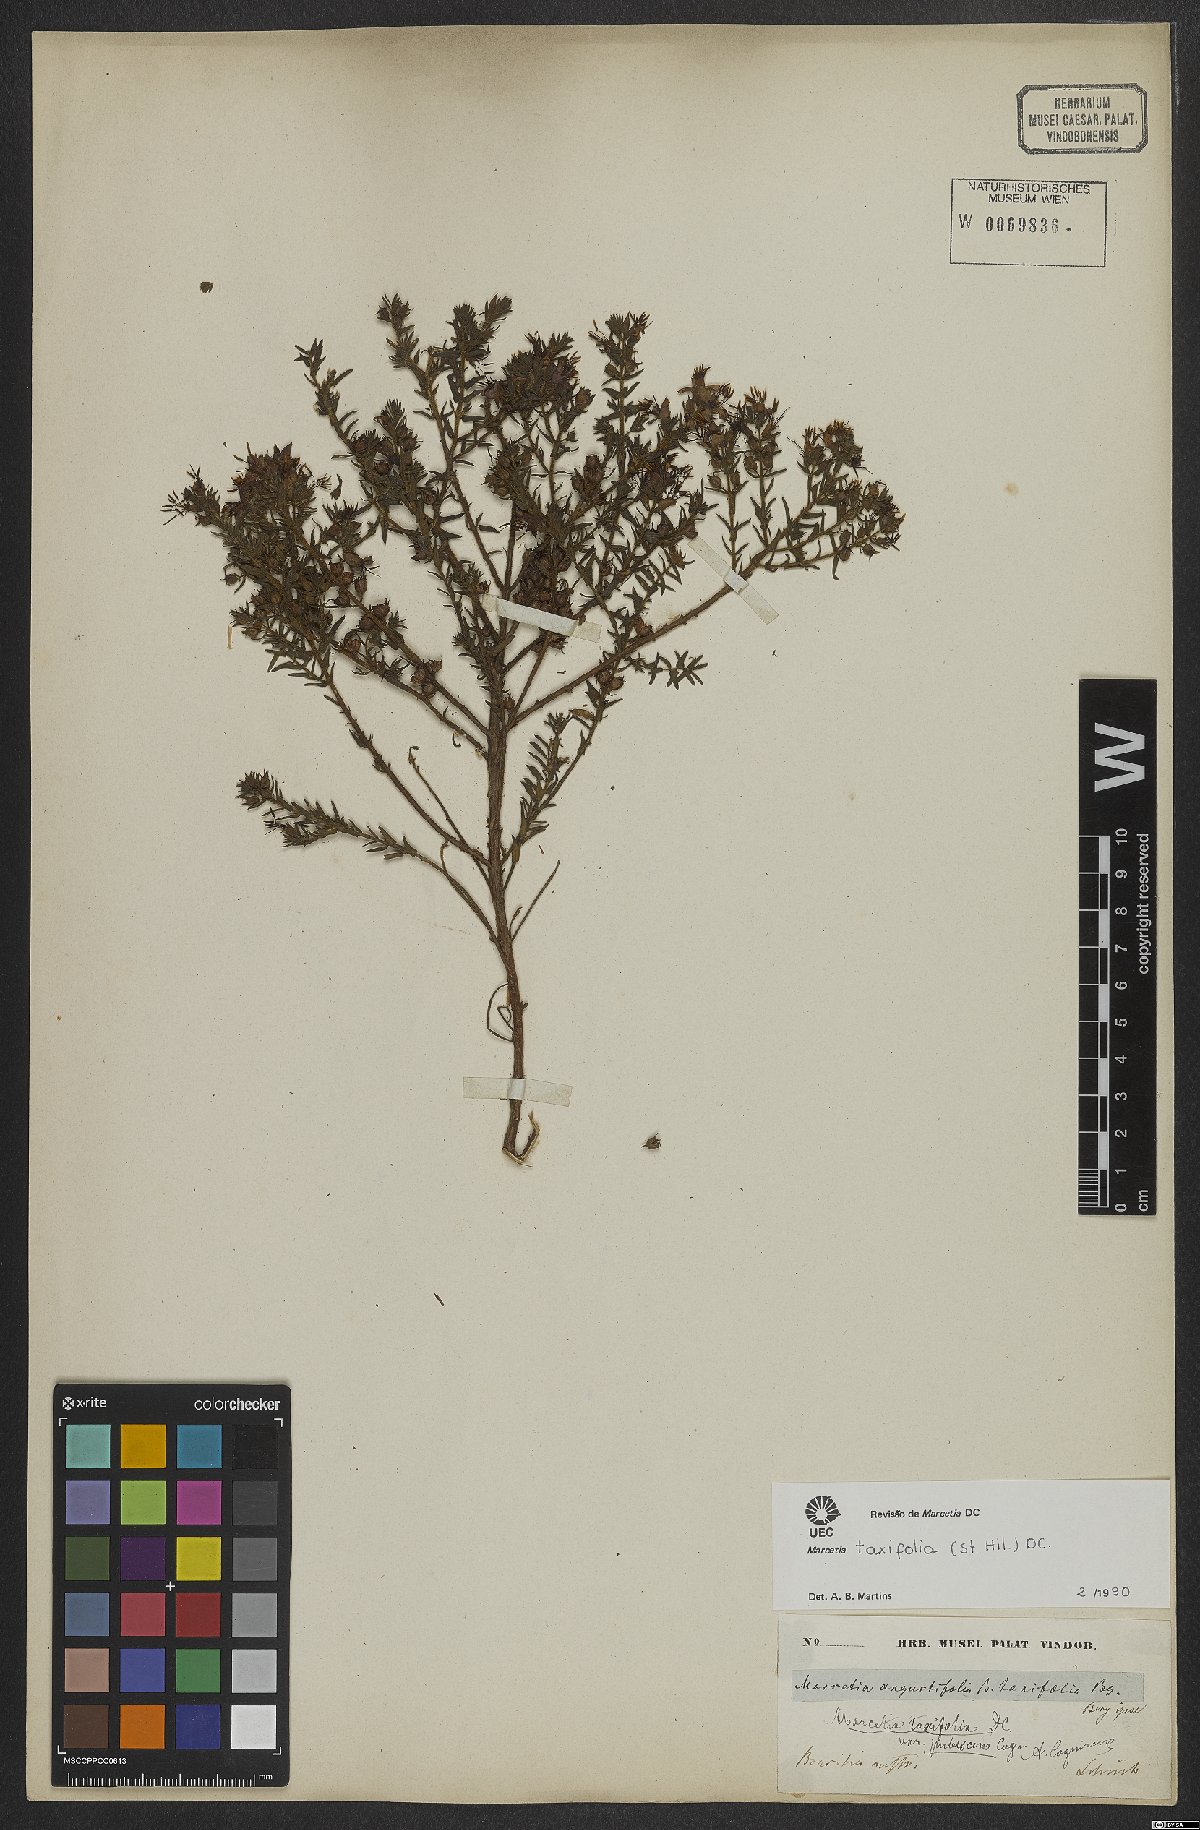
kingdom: Plantae
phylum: Tracheophyta
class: Magnoliopsida
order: Myrtales
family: Melastomataceae
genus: Marcetia
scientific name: Marcetia taxifolia
